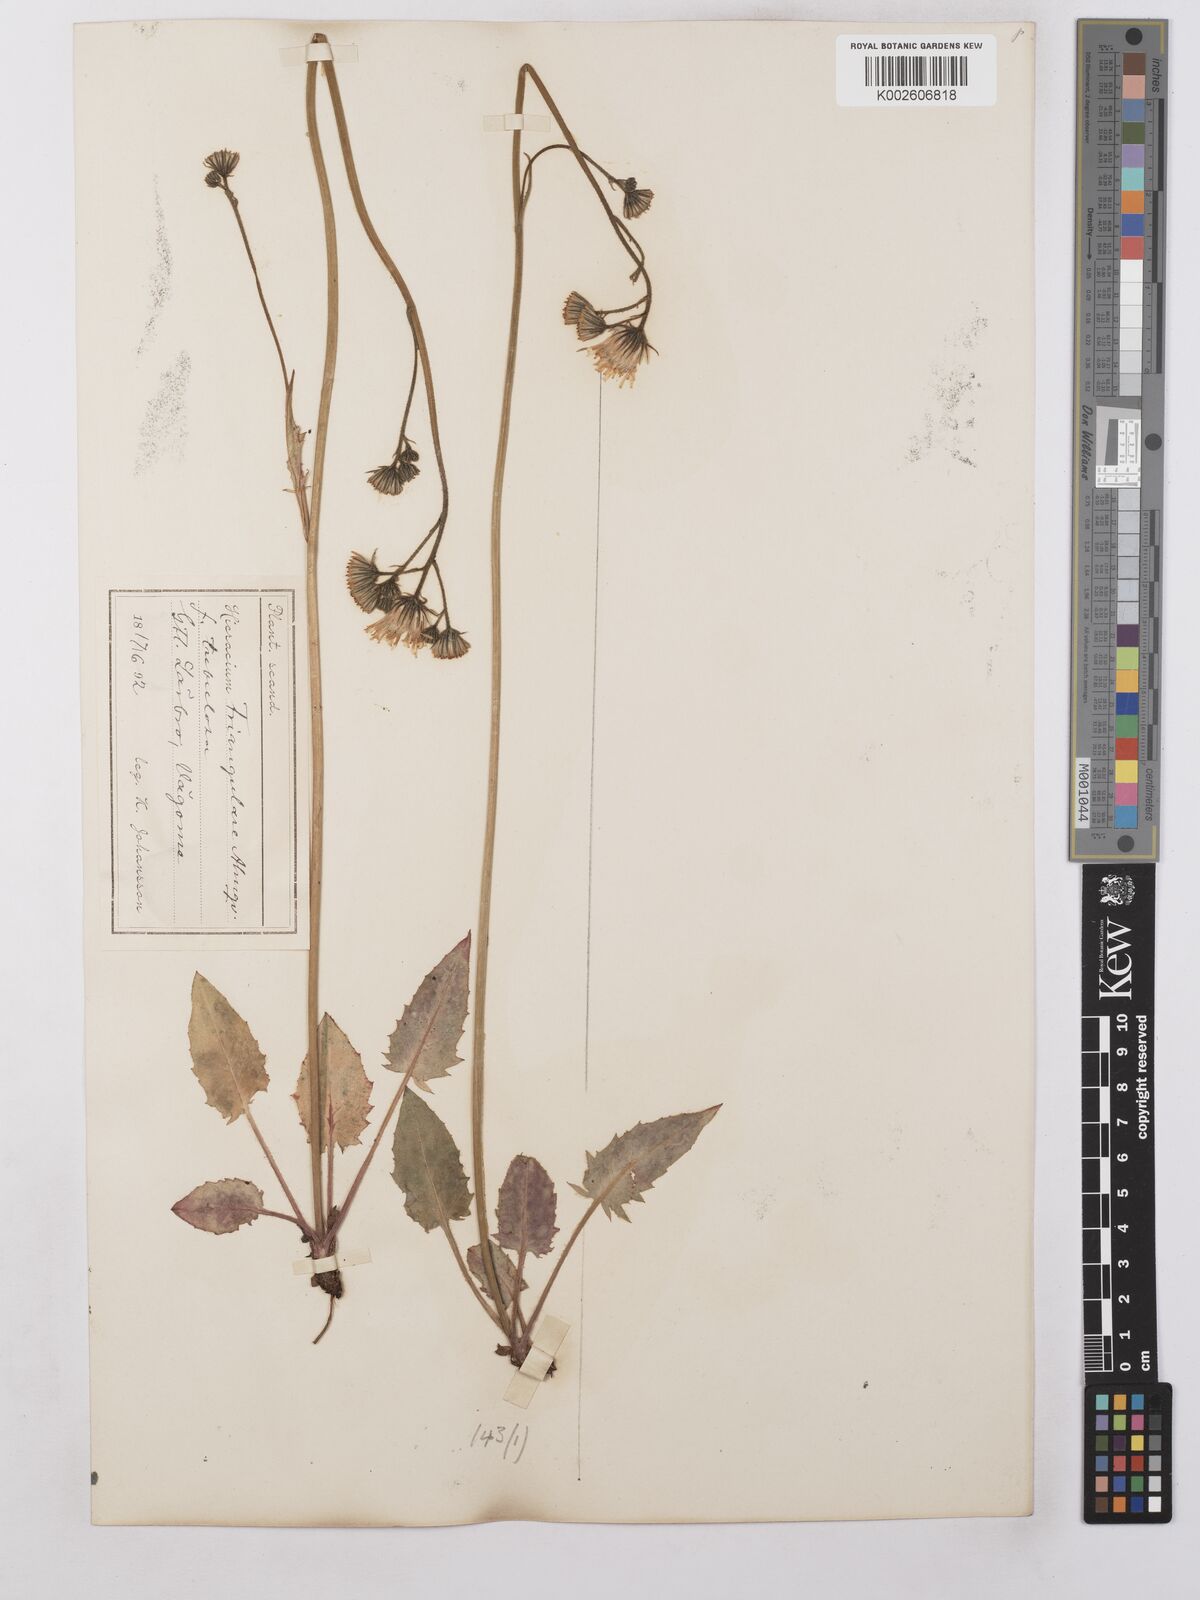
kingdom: Plantae
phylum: Tracheophyta
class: Magnoliopsida
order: Asterales
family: Asteraceae
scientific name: Asteraceae
